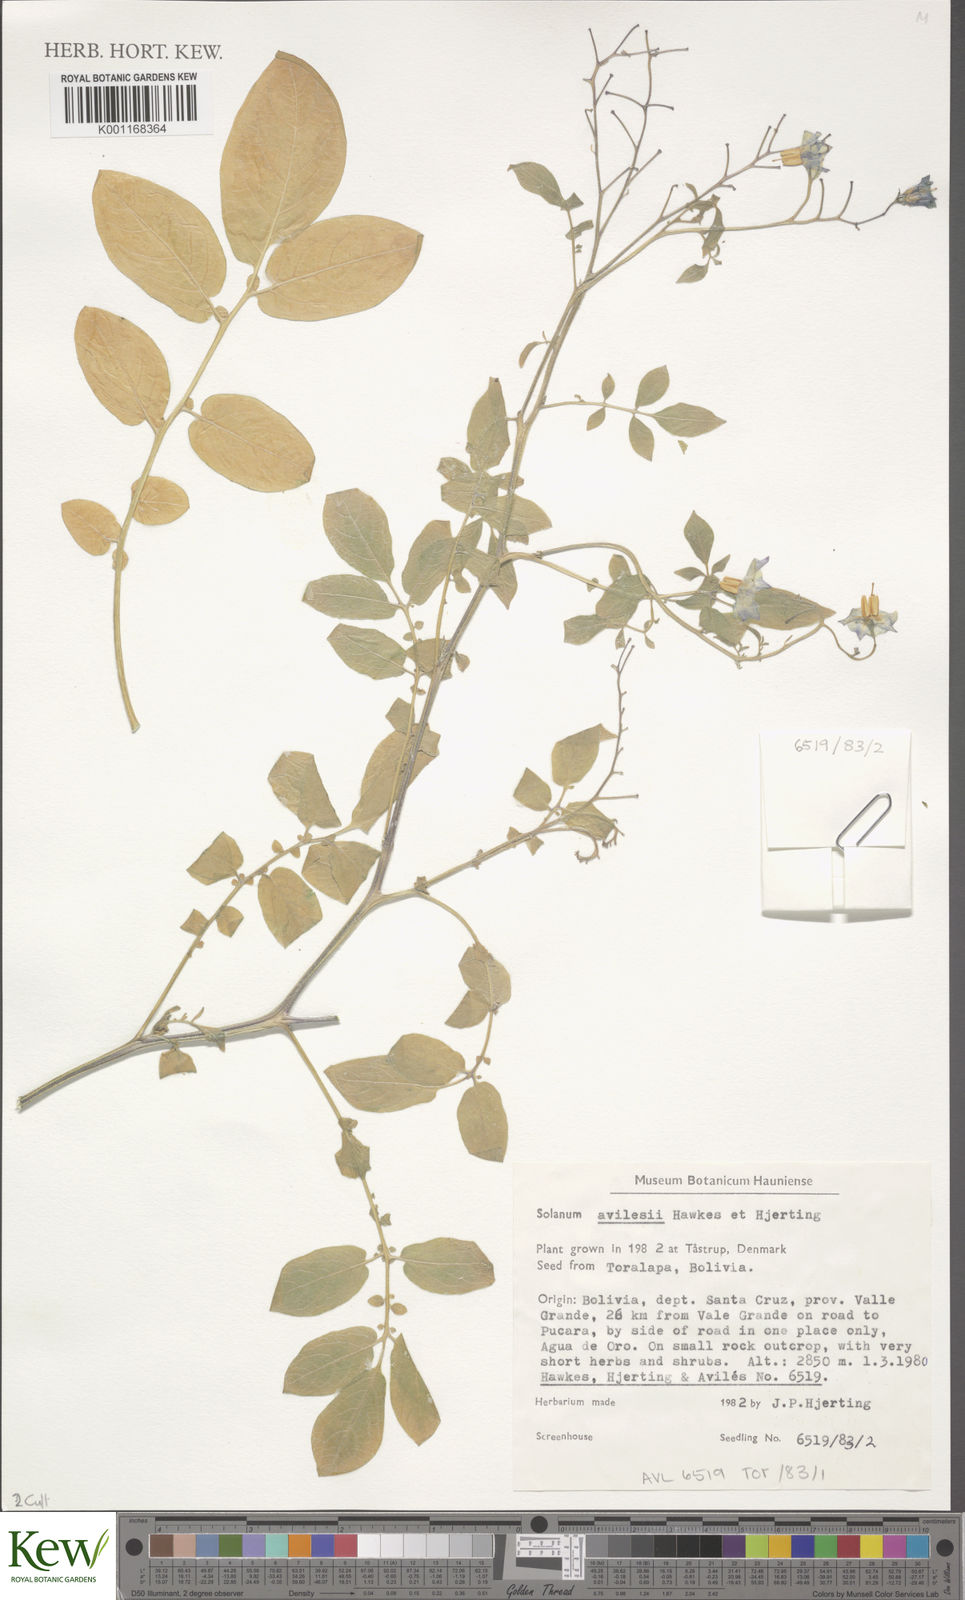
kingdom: Plantae
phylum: Tracheophyta
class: Magnoliopsida
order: Solanales
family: Solanaceae
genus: Solanum
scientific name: Solanum brevicaule
